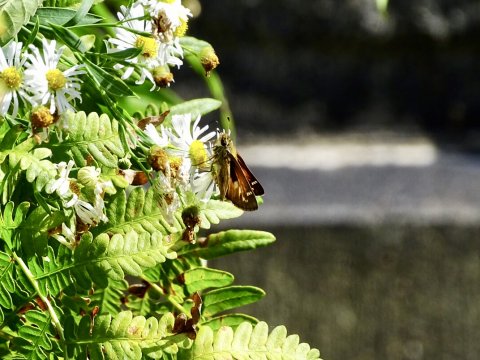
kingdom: Animalia
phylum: Arthropoda
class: Insecta
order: Lepidoptera
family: Hesperiidae
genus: Atalopedes
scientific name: Atalopedes campestris
